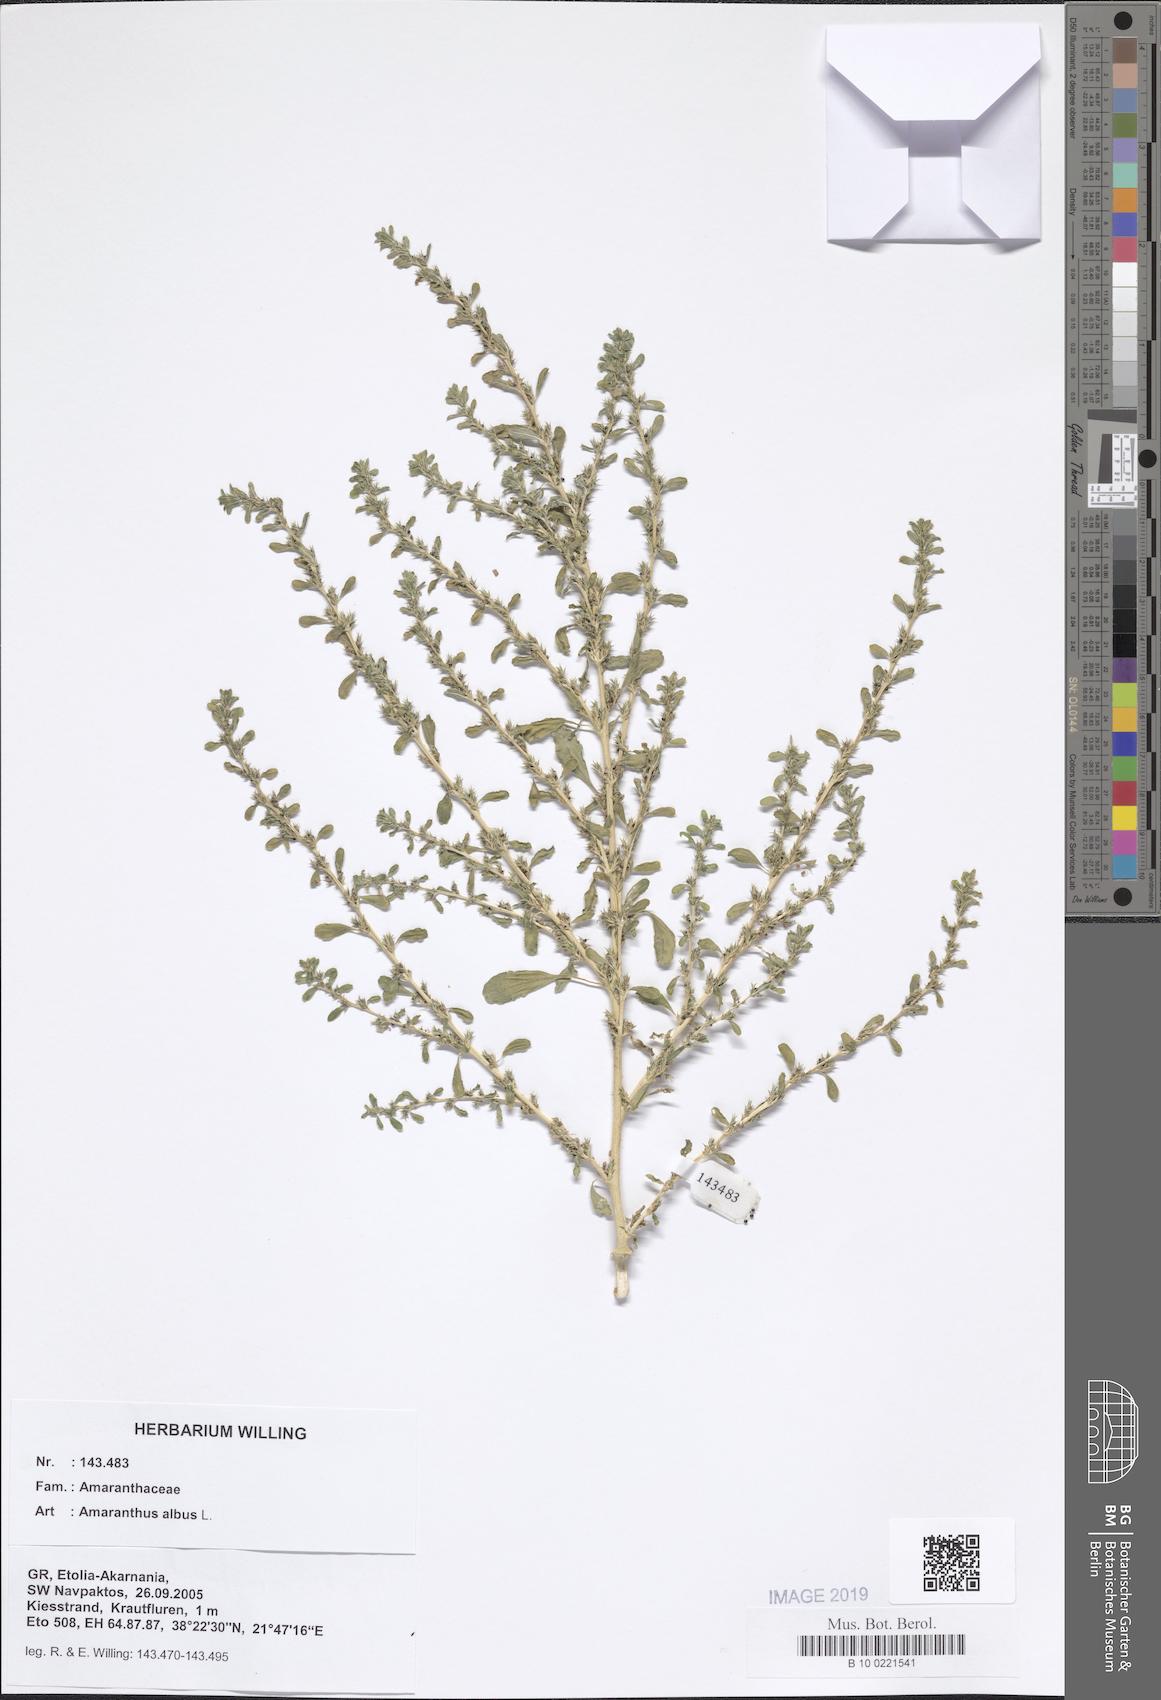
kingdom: Plantae
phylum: Tracheophyta
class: Magnoliopsida
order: Caryophyllales
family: Amaranthaceae
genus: Amaranthus
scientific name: Amaranthus albus
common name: White pigweed
